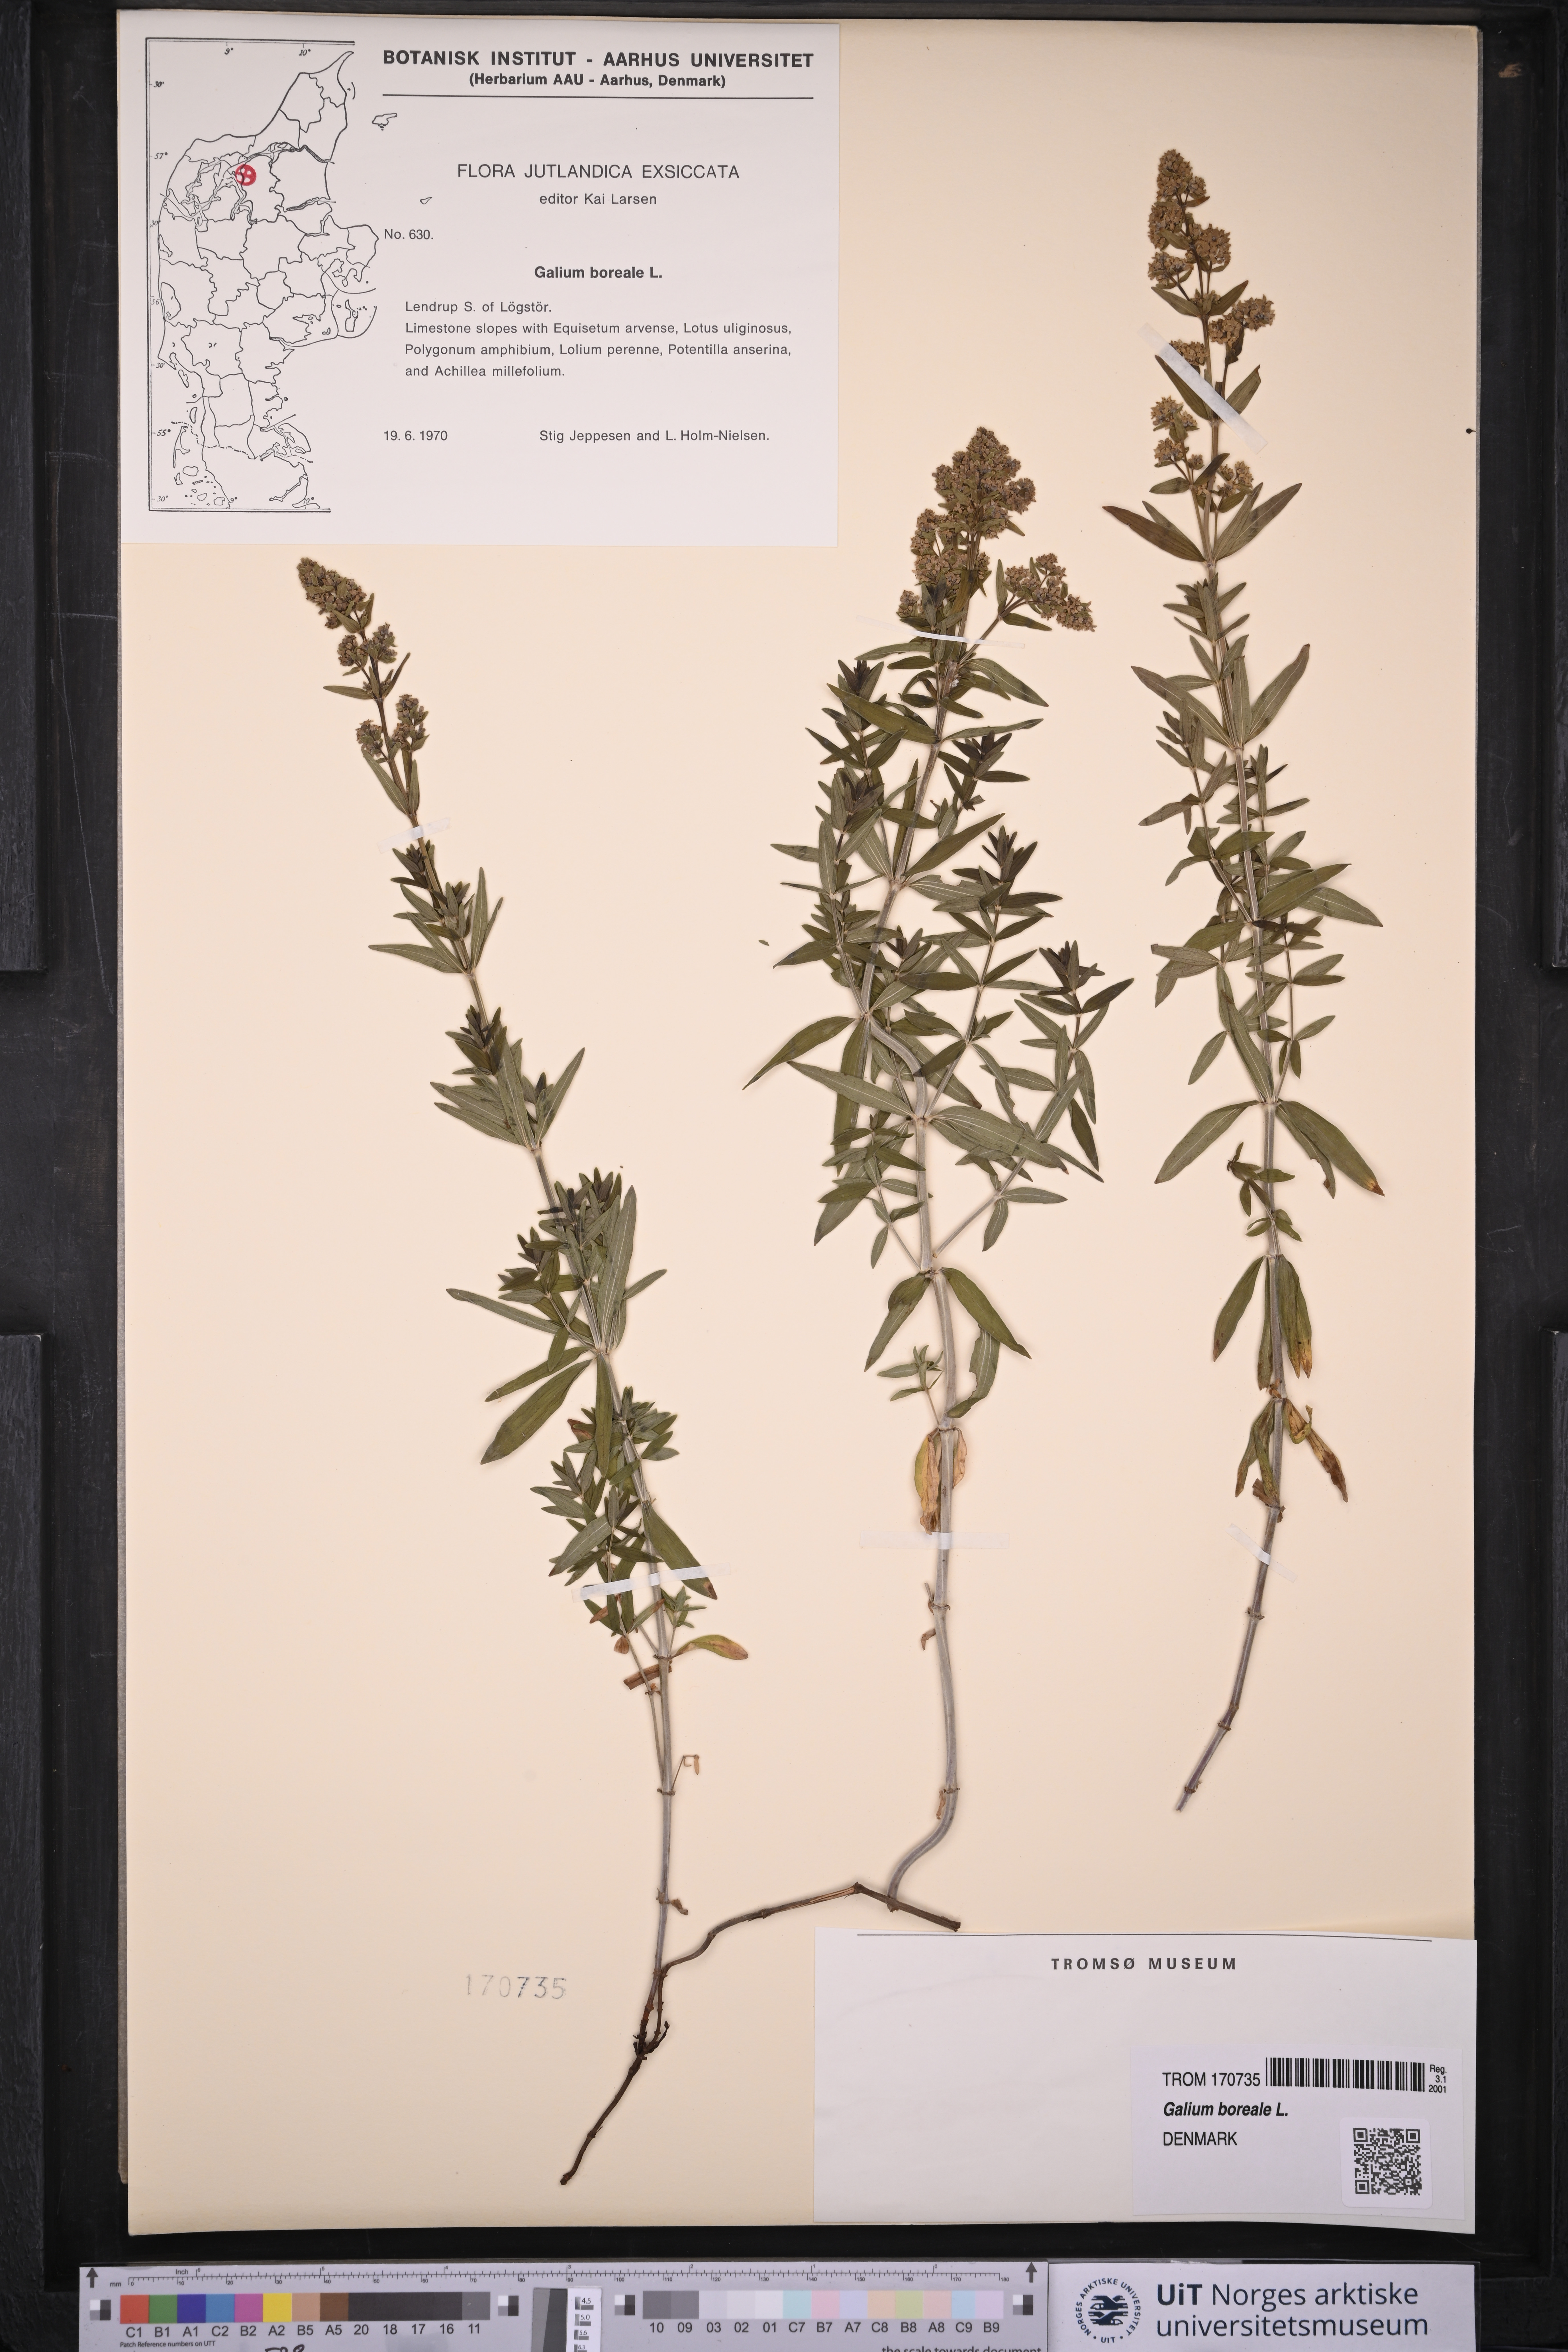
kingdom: Plantae
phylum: Tracheophyta
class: Magnoliopsida
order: Gentianales
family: Rubiaceae
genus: Galium
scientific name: Galium boreale
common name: Northern bedstraw
